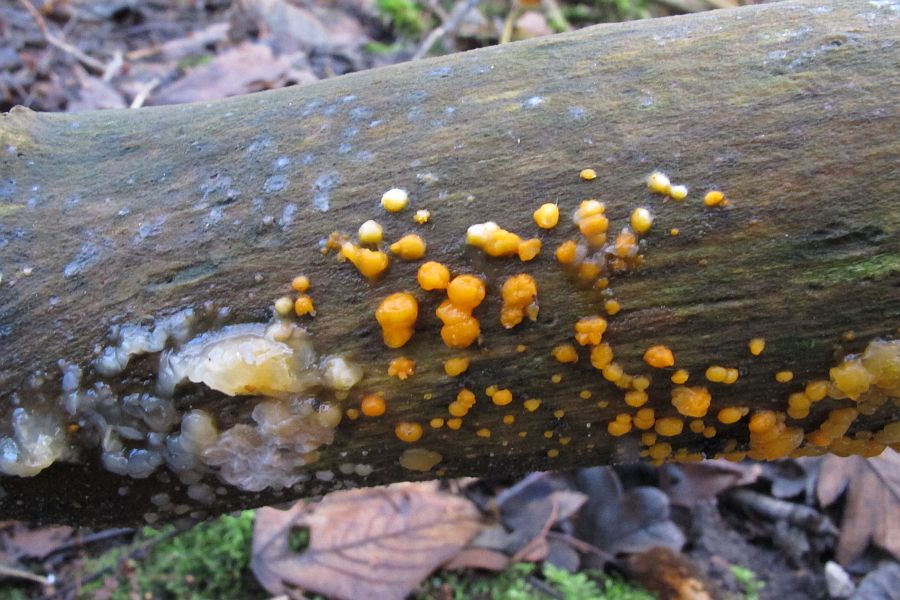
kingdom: Fungi
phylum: Basidiomycota
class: Dacrymycetes
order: Dacrymycetales
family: Dacrymycetaceae
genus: Dacrymyces
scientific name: Dacrymyces stillatus
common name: almindelig tåresvamp
